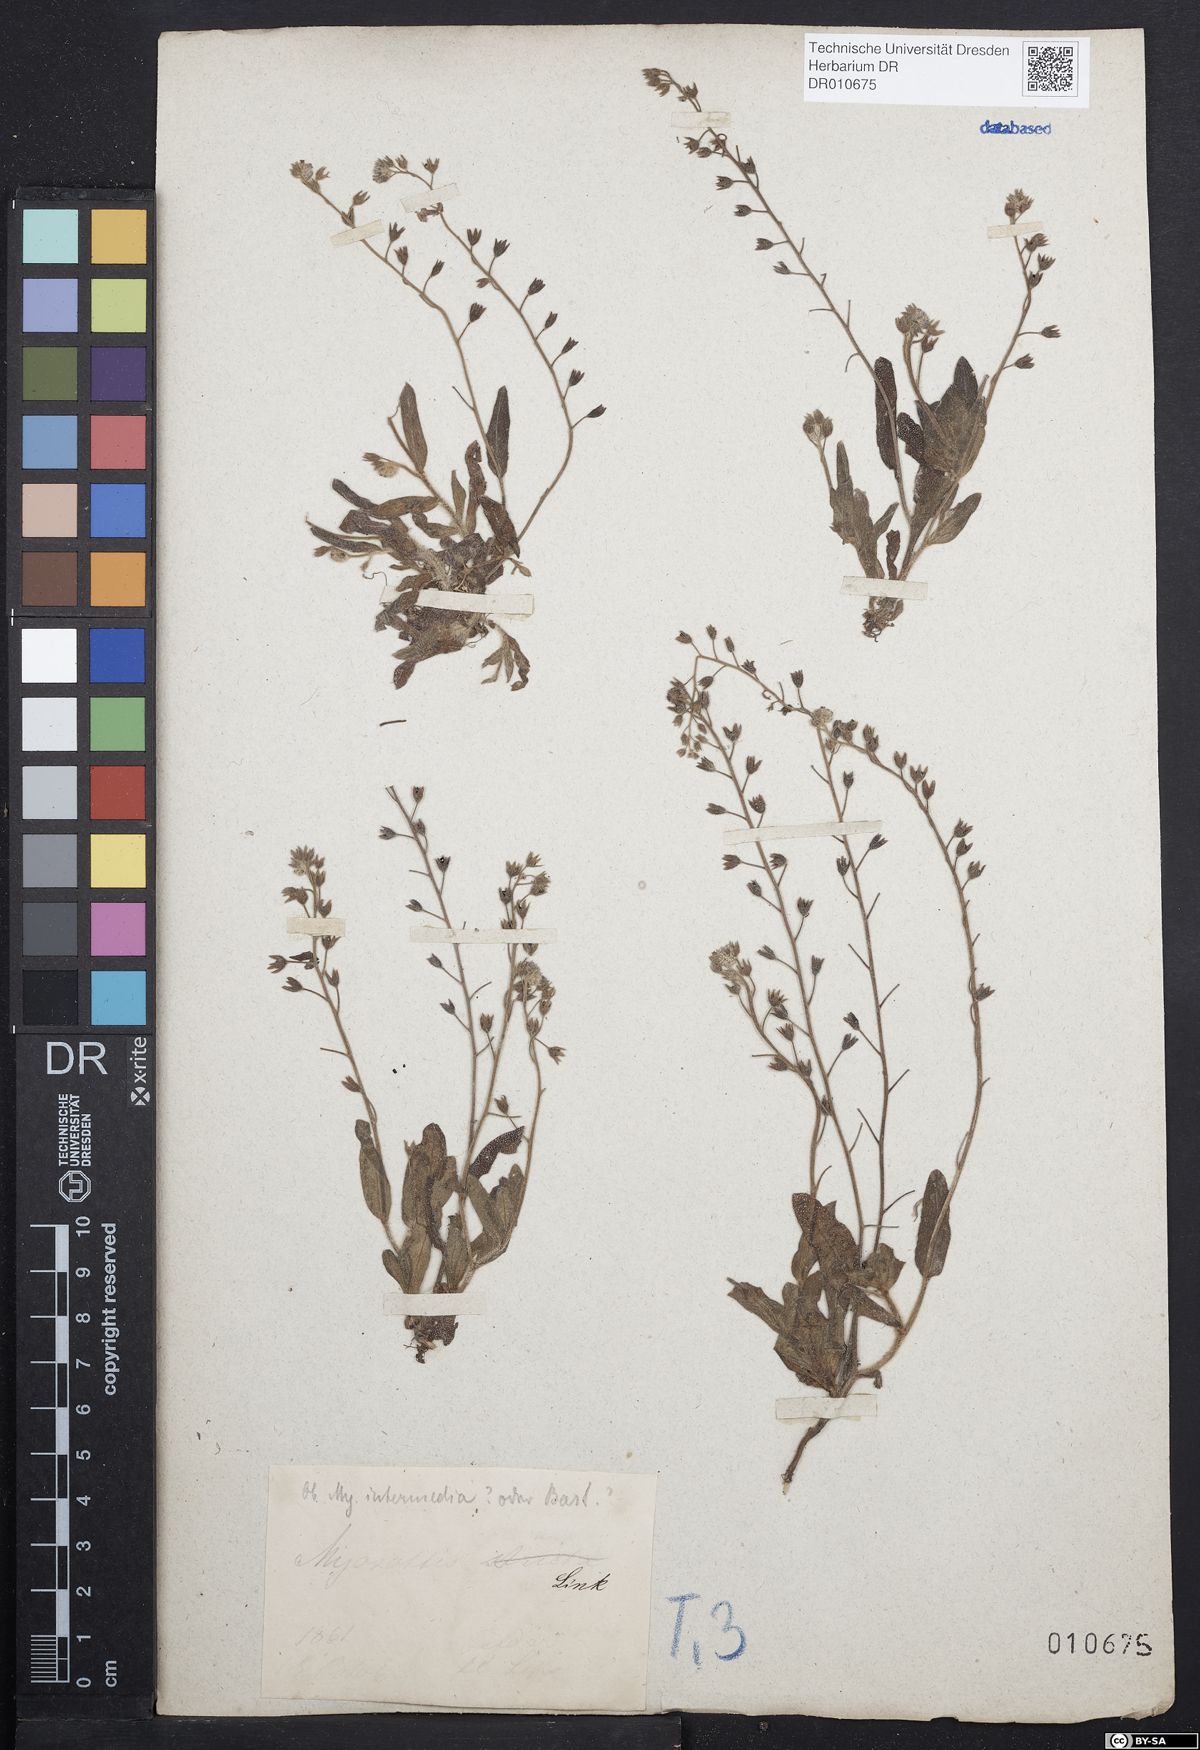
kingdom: Plantae
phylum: Tracheophyta
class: Magnoliopsida
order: Boraginales
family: Boraginaceae
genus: Myosotis
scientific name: Myosotis arvensis
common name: Field forget-me-not
